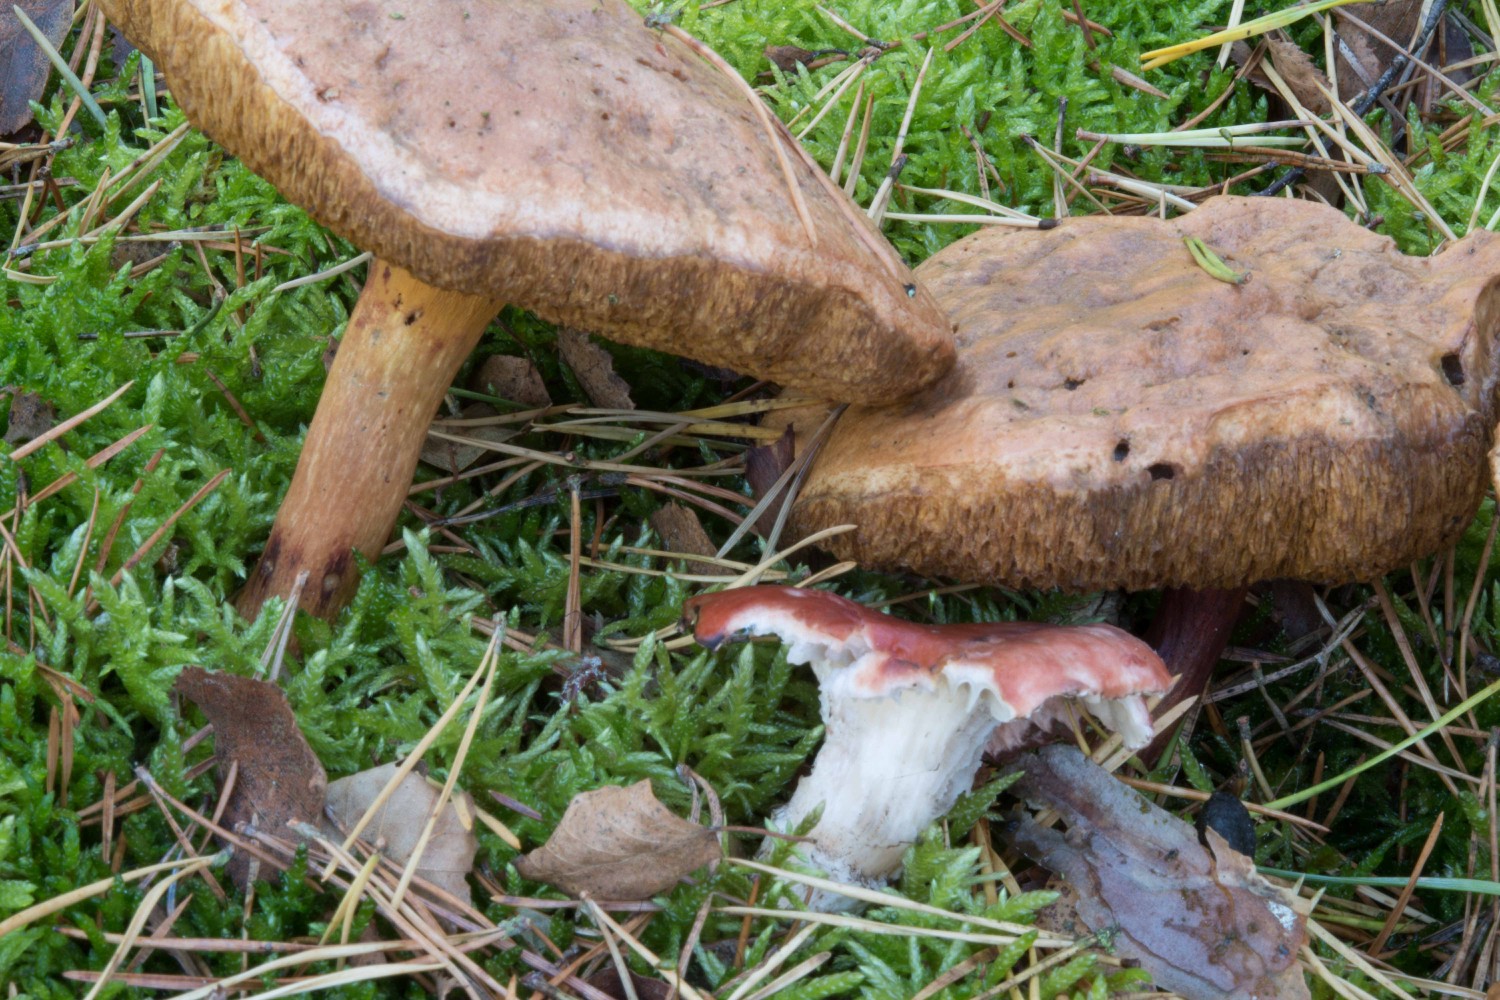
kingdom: Fungi
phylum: Basidiomycota
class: Agaricomycetes
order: Boletales
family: Gomphidiaceae
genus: Gomphidius
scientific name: Gomphidius roseus
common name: rosenrød slimslør
